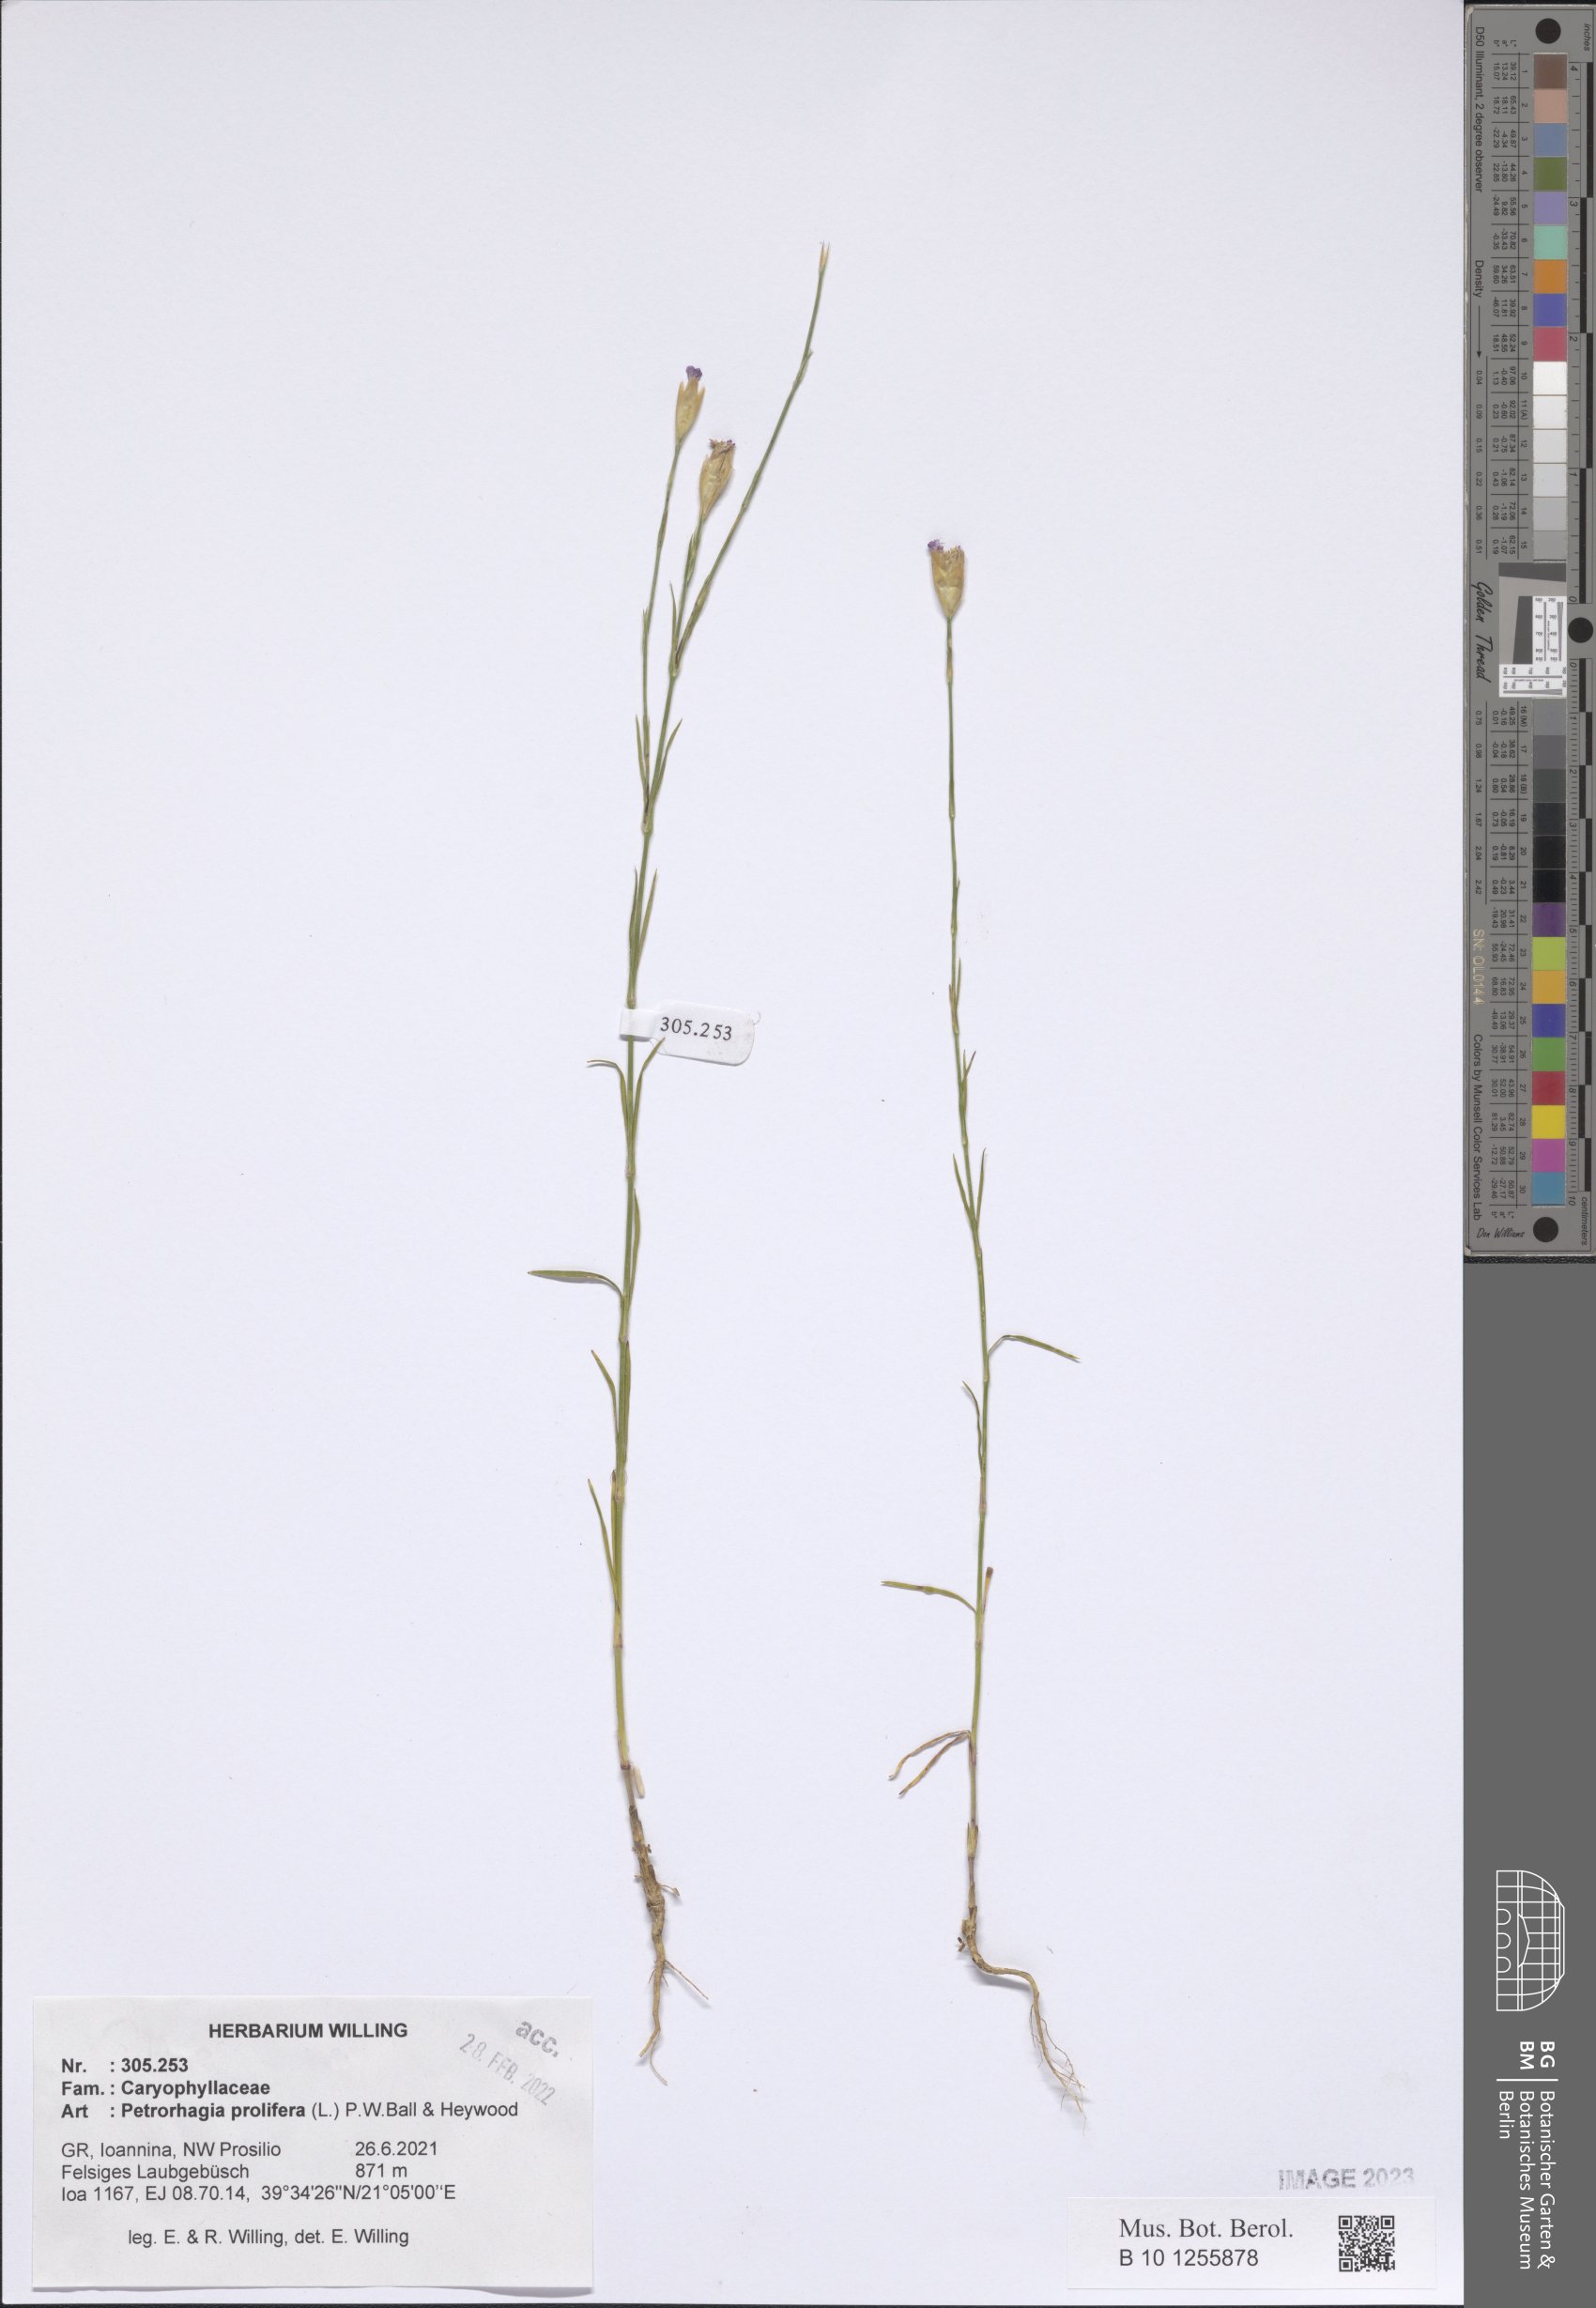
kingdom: Plantae
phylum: Tracheophyta
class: Magnoliopsida
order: Caryophyllales
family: Caryophyllaceae
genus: Petrorhagia
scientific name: Petrorhagia prolifera
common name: Proliferous pink
